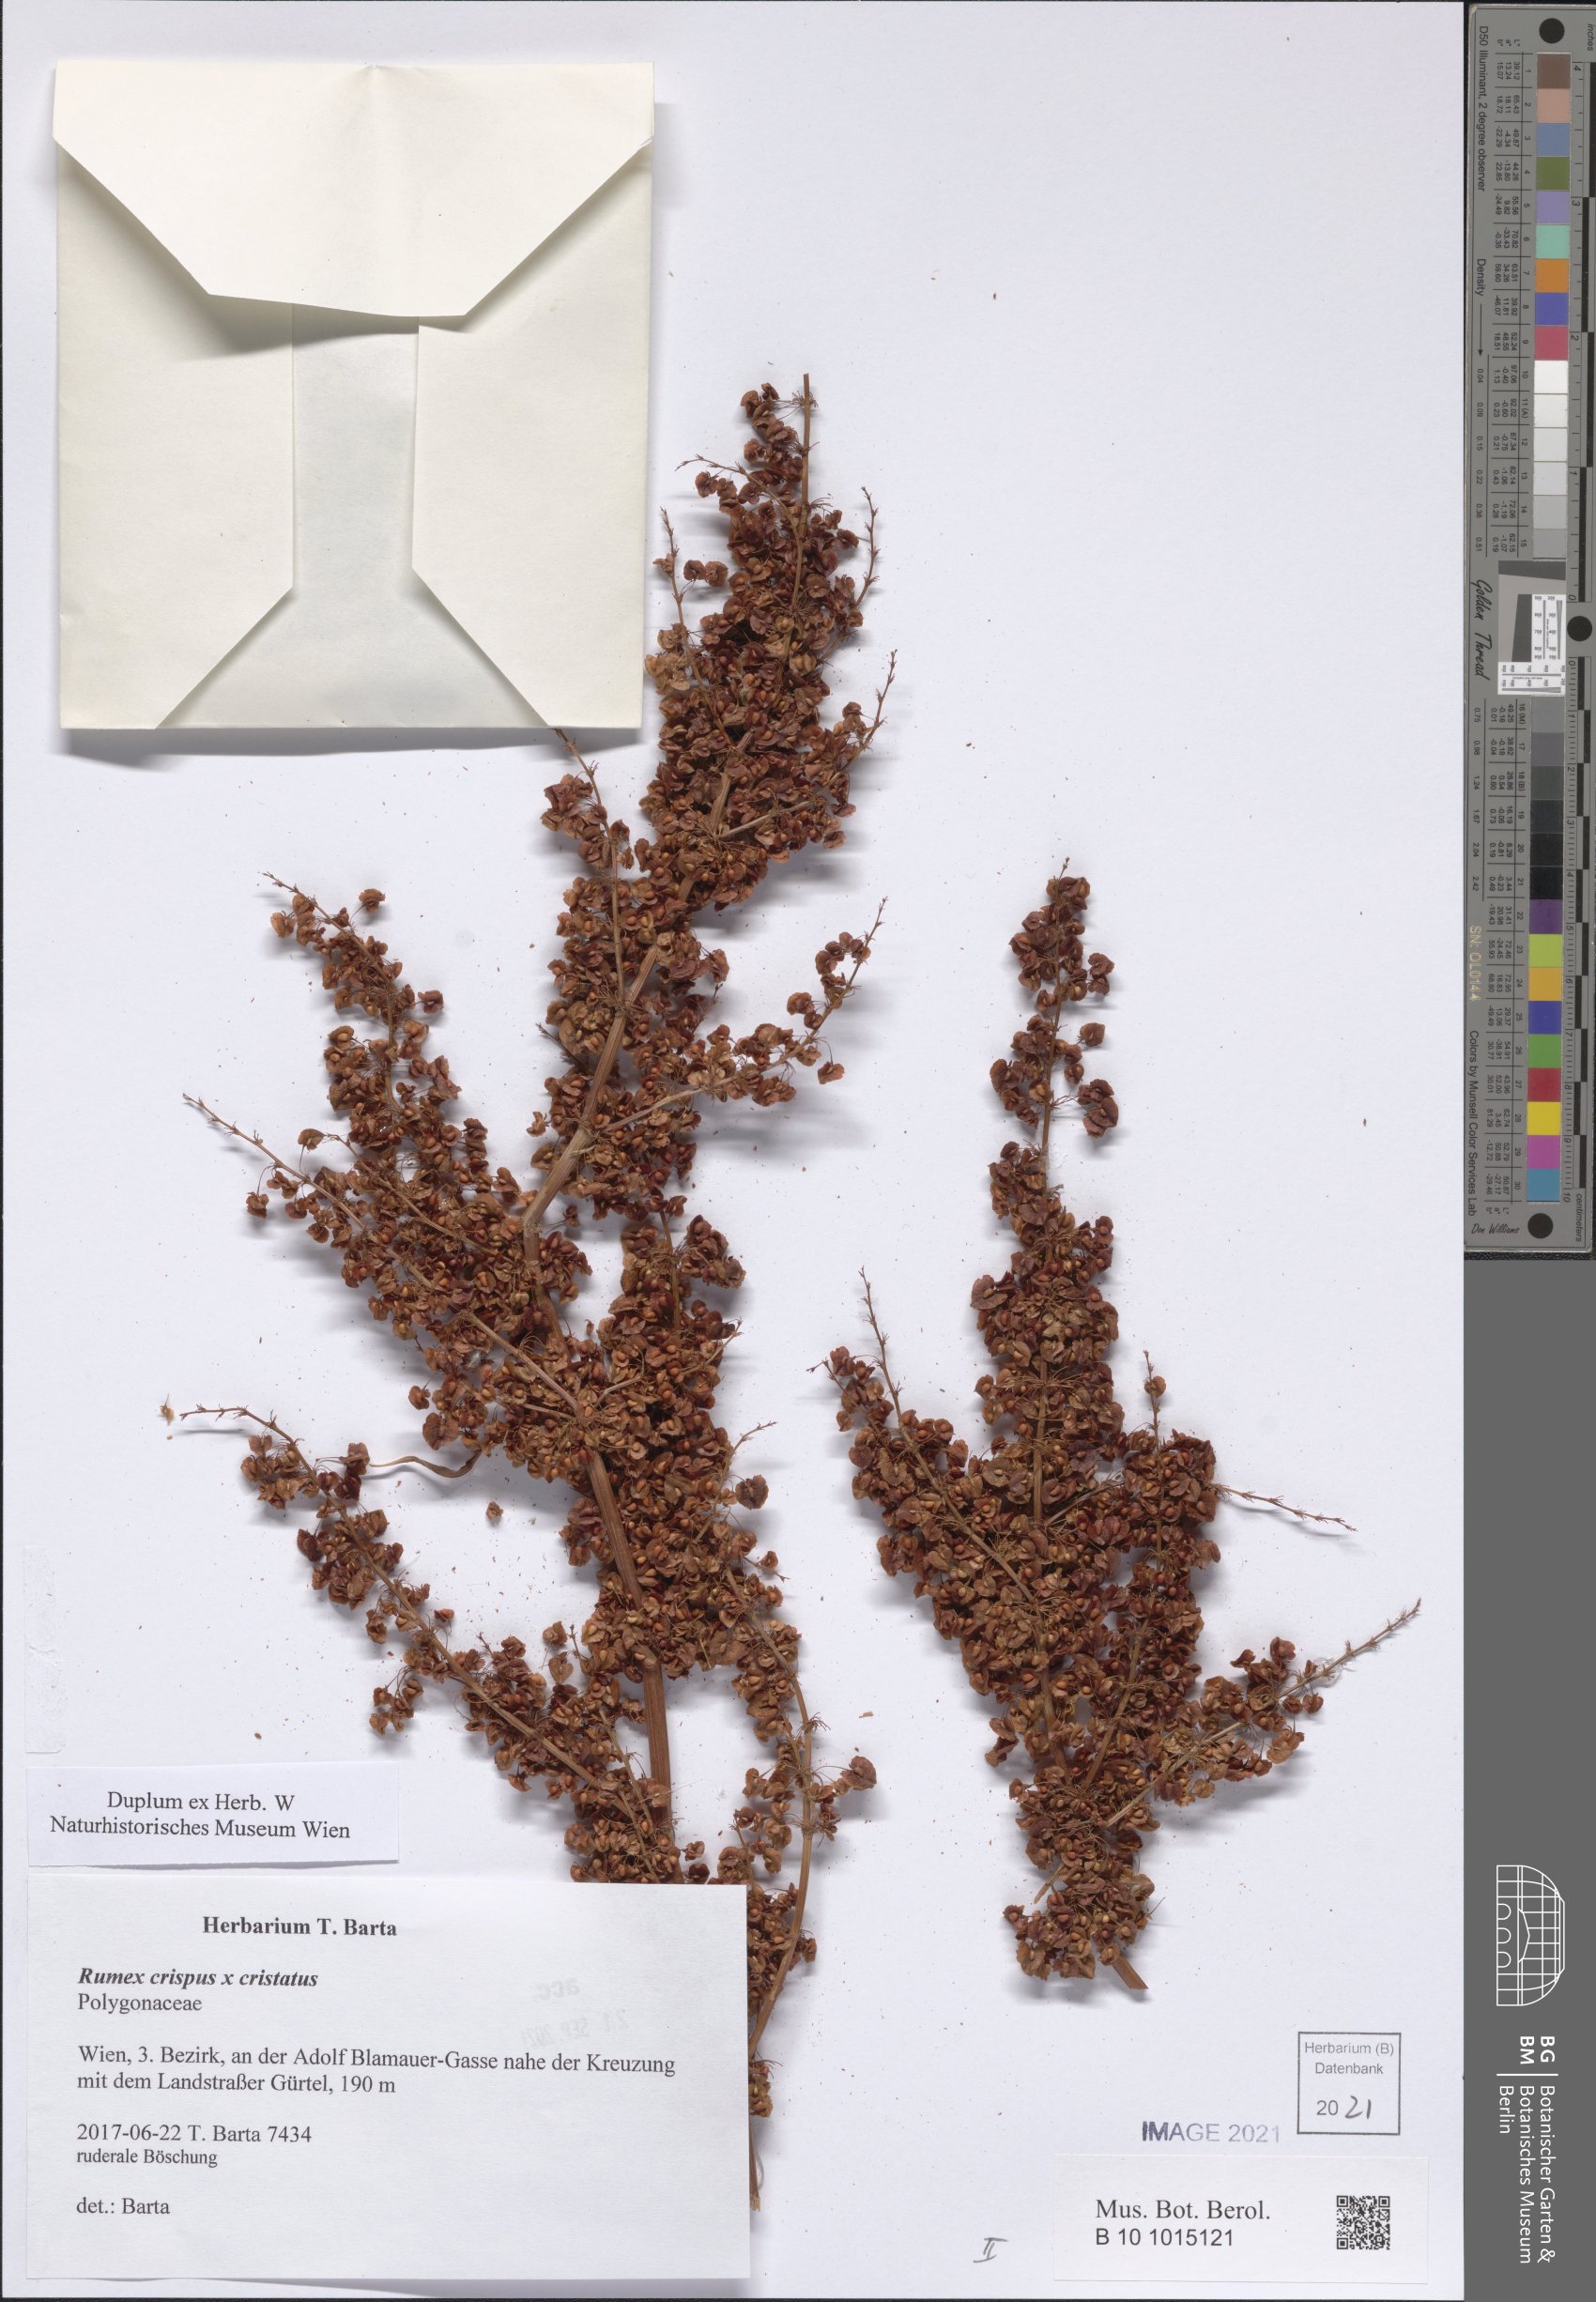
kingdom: Plantae
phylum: Tracheophyta
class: Magnoliopsida
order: Caryophyllales
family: Polygonaceae
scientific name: Polygonaceae
